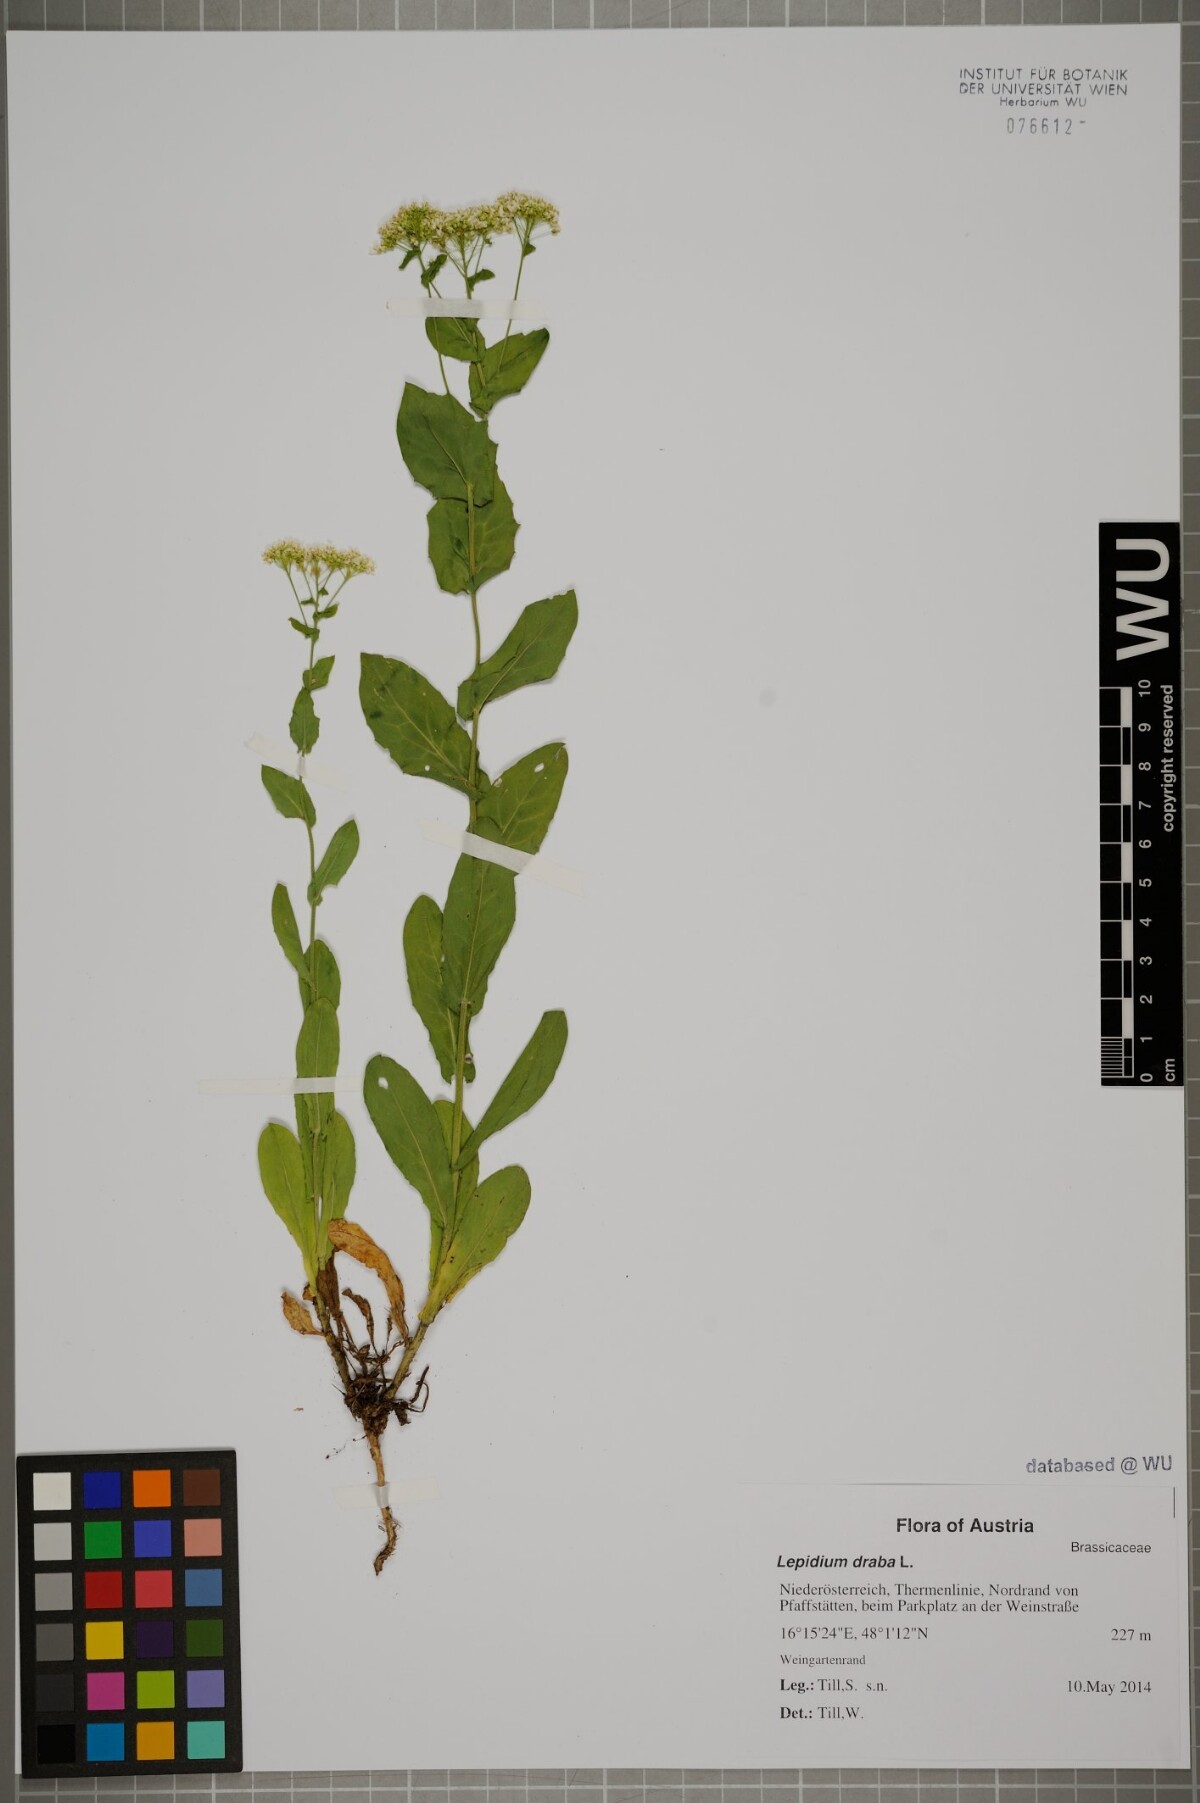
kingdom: Plantae
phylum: Tracheophyta
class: Magnoliopsida
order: Brassicales
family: Brassicaceae
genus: Lepidium
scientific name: Lepidium draba
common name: Hoary cress
